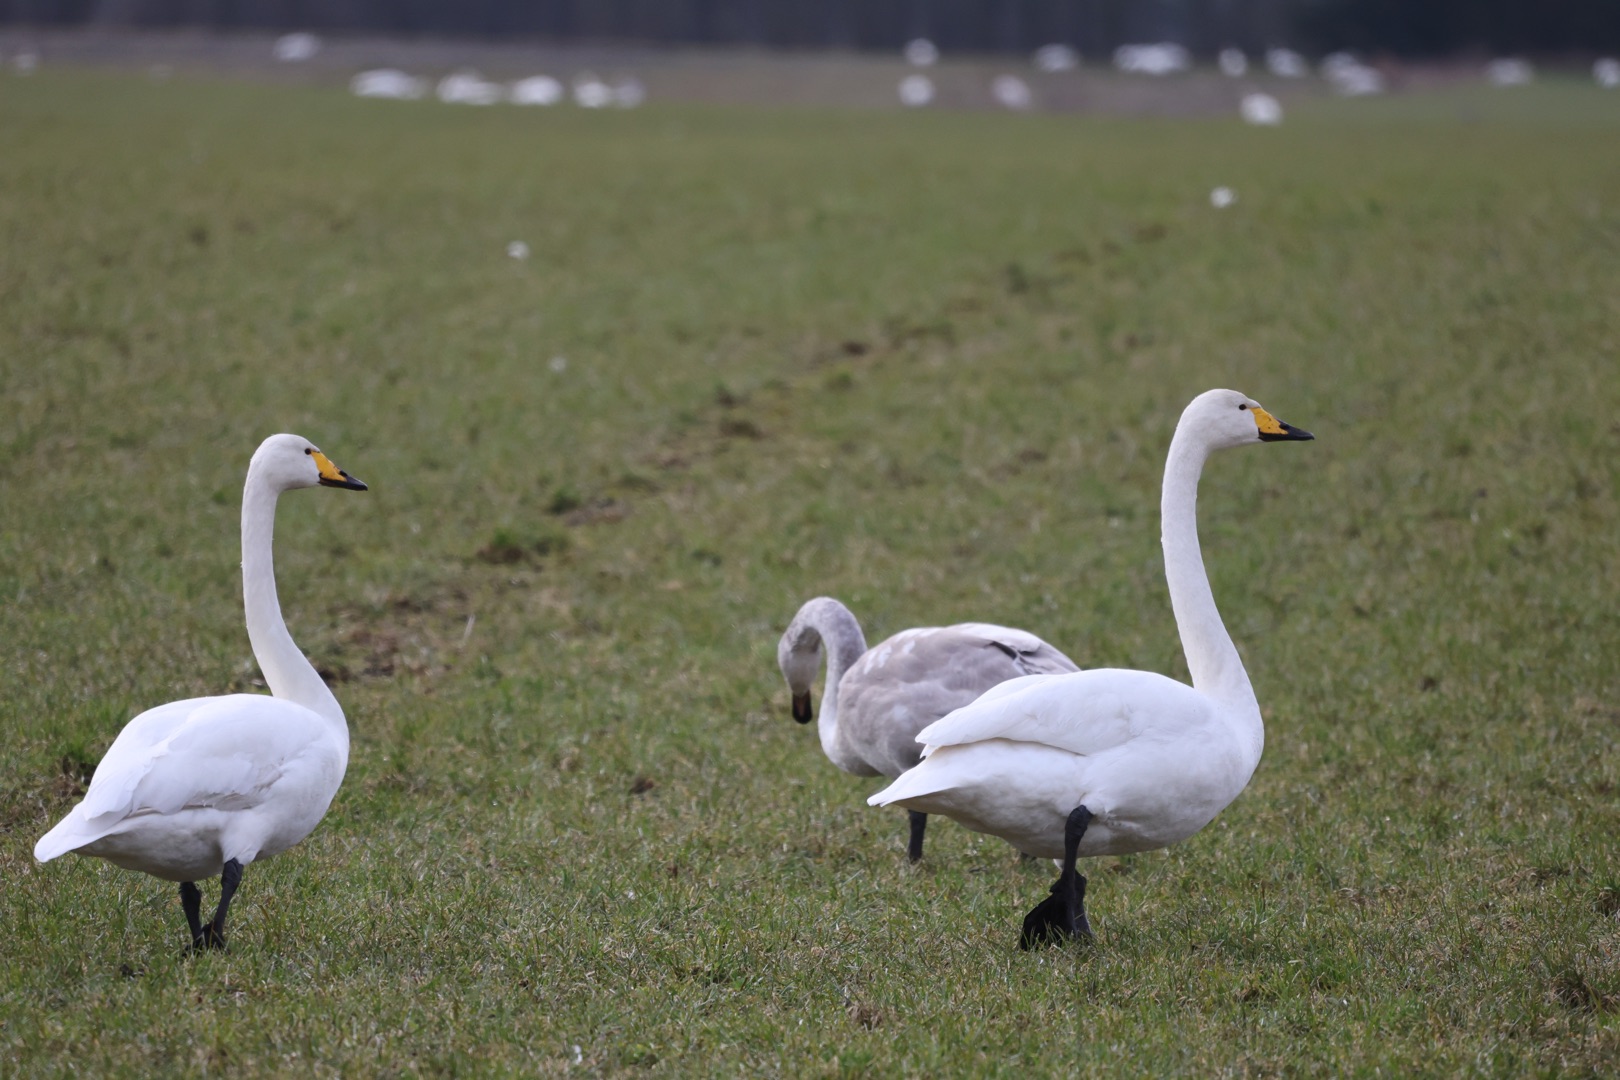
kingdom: Animalia
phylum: Chordata
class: Aves
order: Anseriformes
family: Anatidae
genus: Cygnus
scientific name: Cygnus cygnus
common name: Sangsvane
